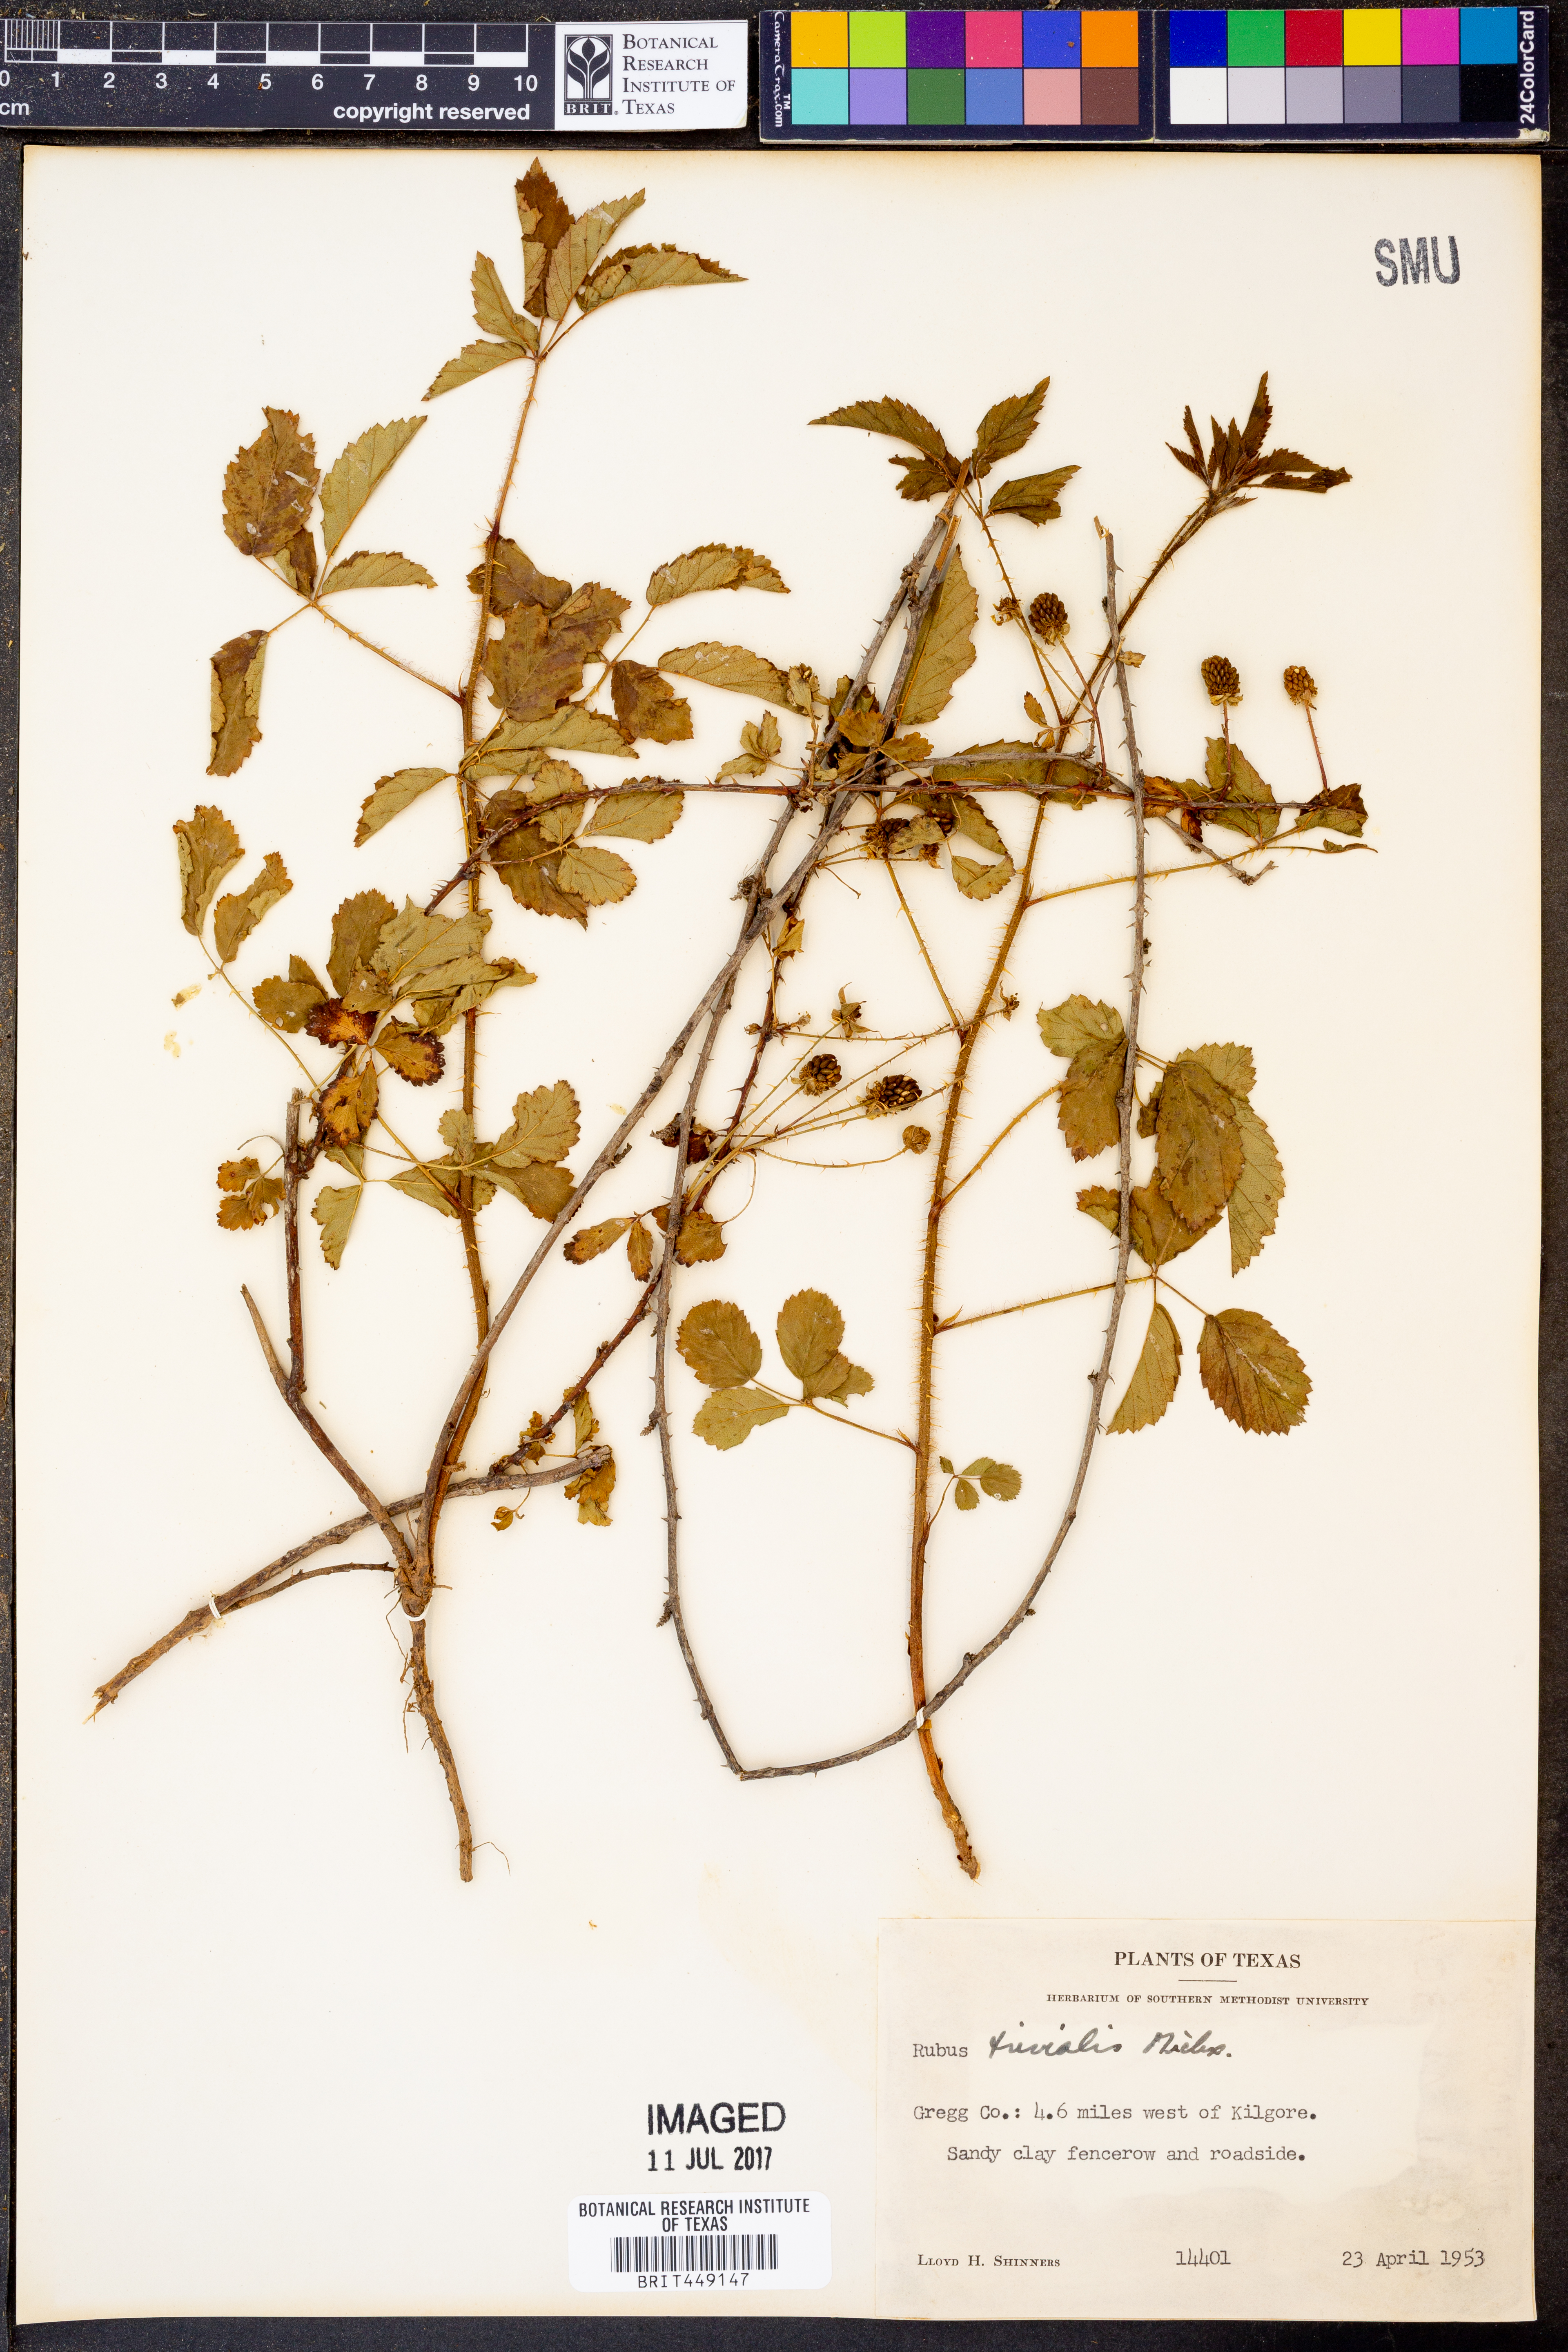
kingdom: Plantae
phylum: Tracheophyta
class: Magnoliopsida
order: Rosales
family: Rosaceae
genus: Rubus
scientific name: Rubus trivialis
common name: Southern dewberry
